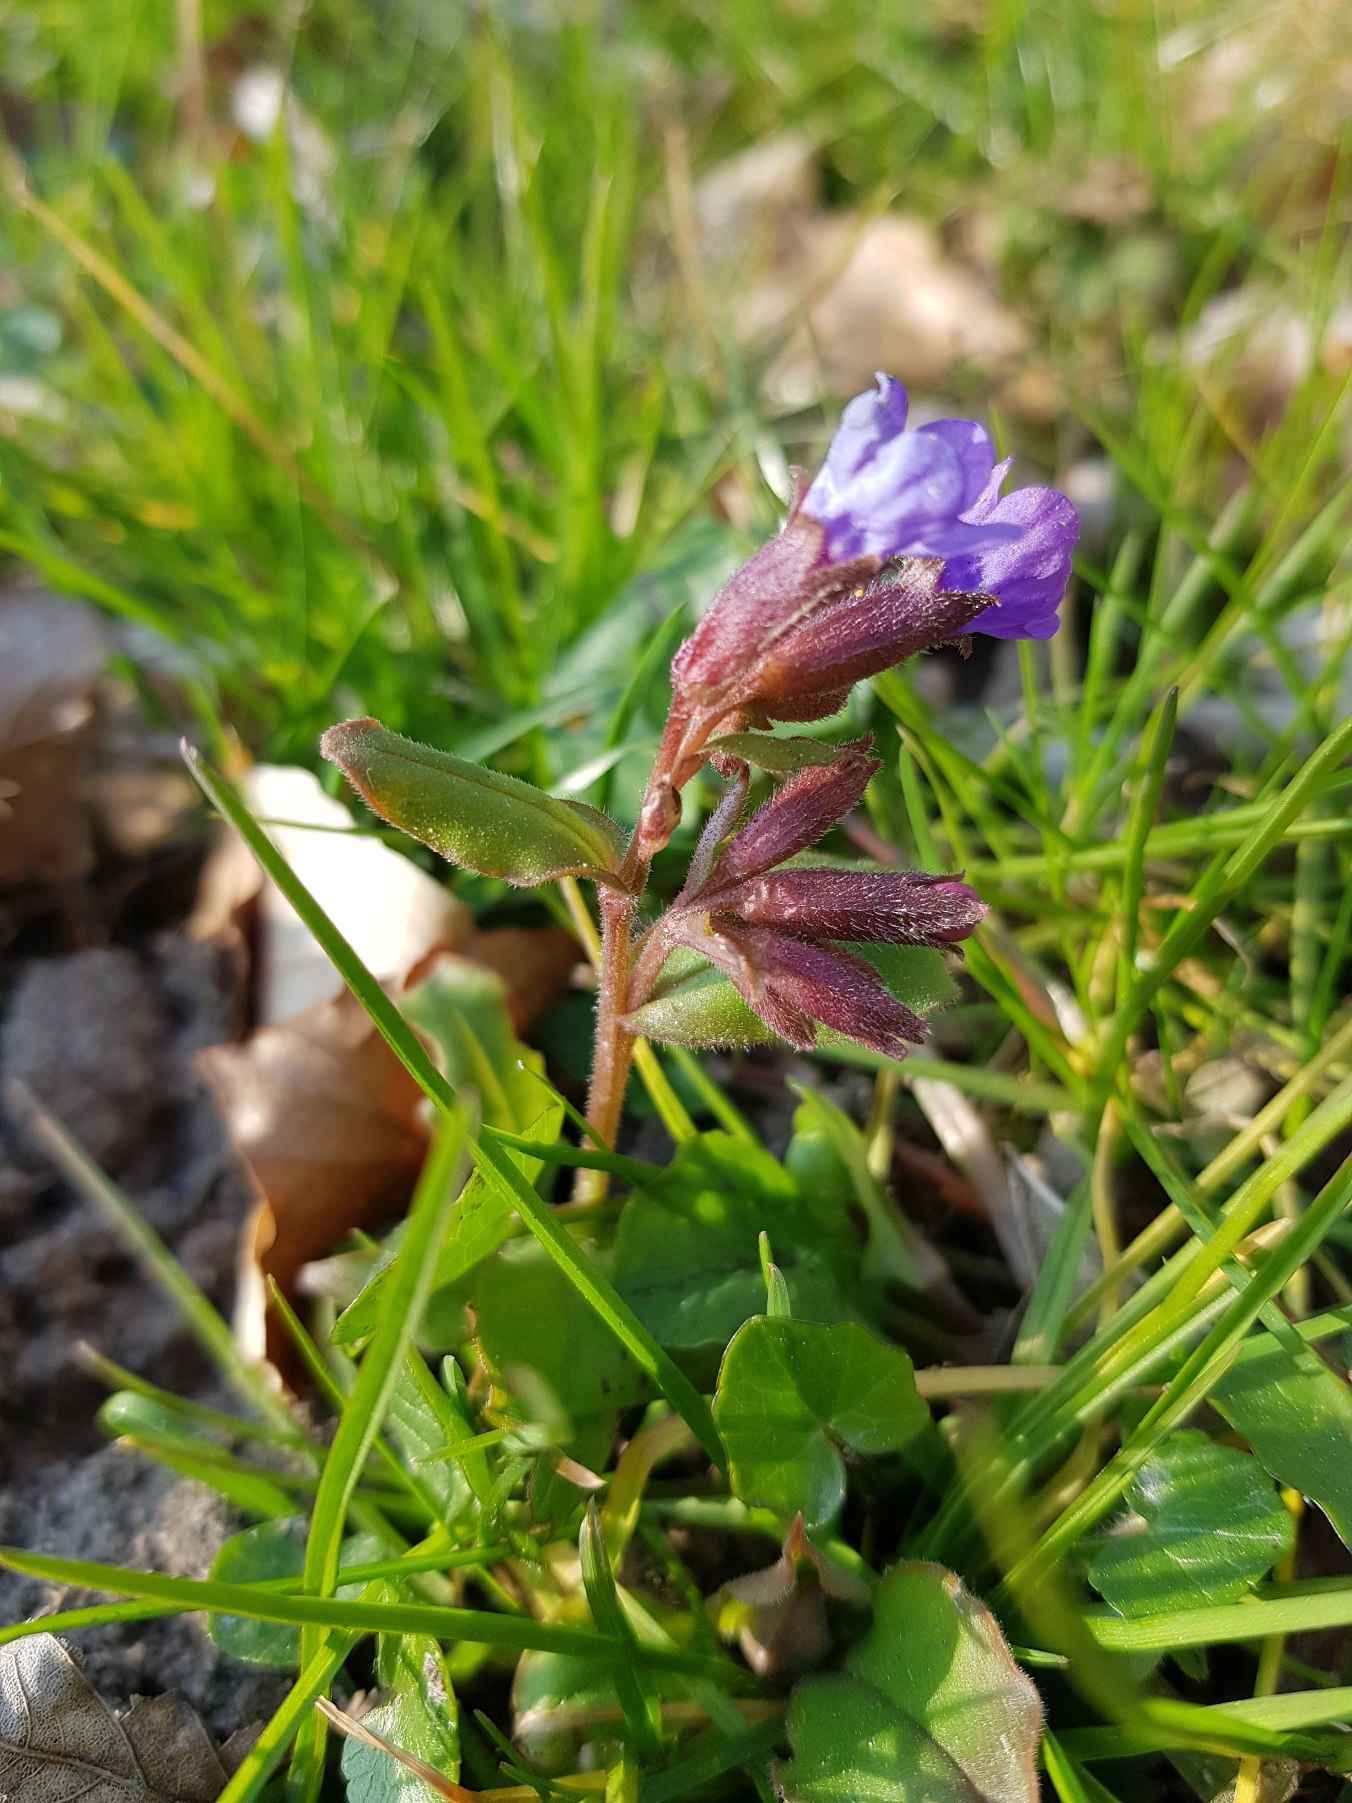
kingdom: Plantae
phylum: Tracheophyta
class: Magnoliopsida
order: Boraginales
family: Boraginaceae
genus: Pulmonaria
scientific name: Pulmonaria obscura
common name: Almindelig lungeurt
